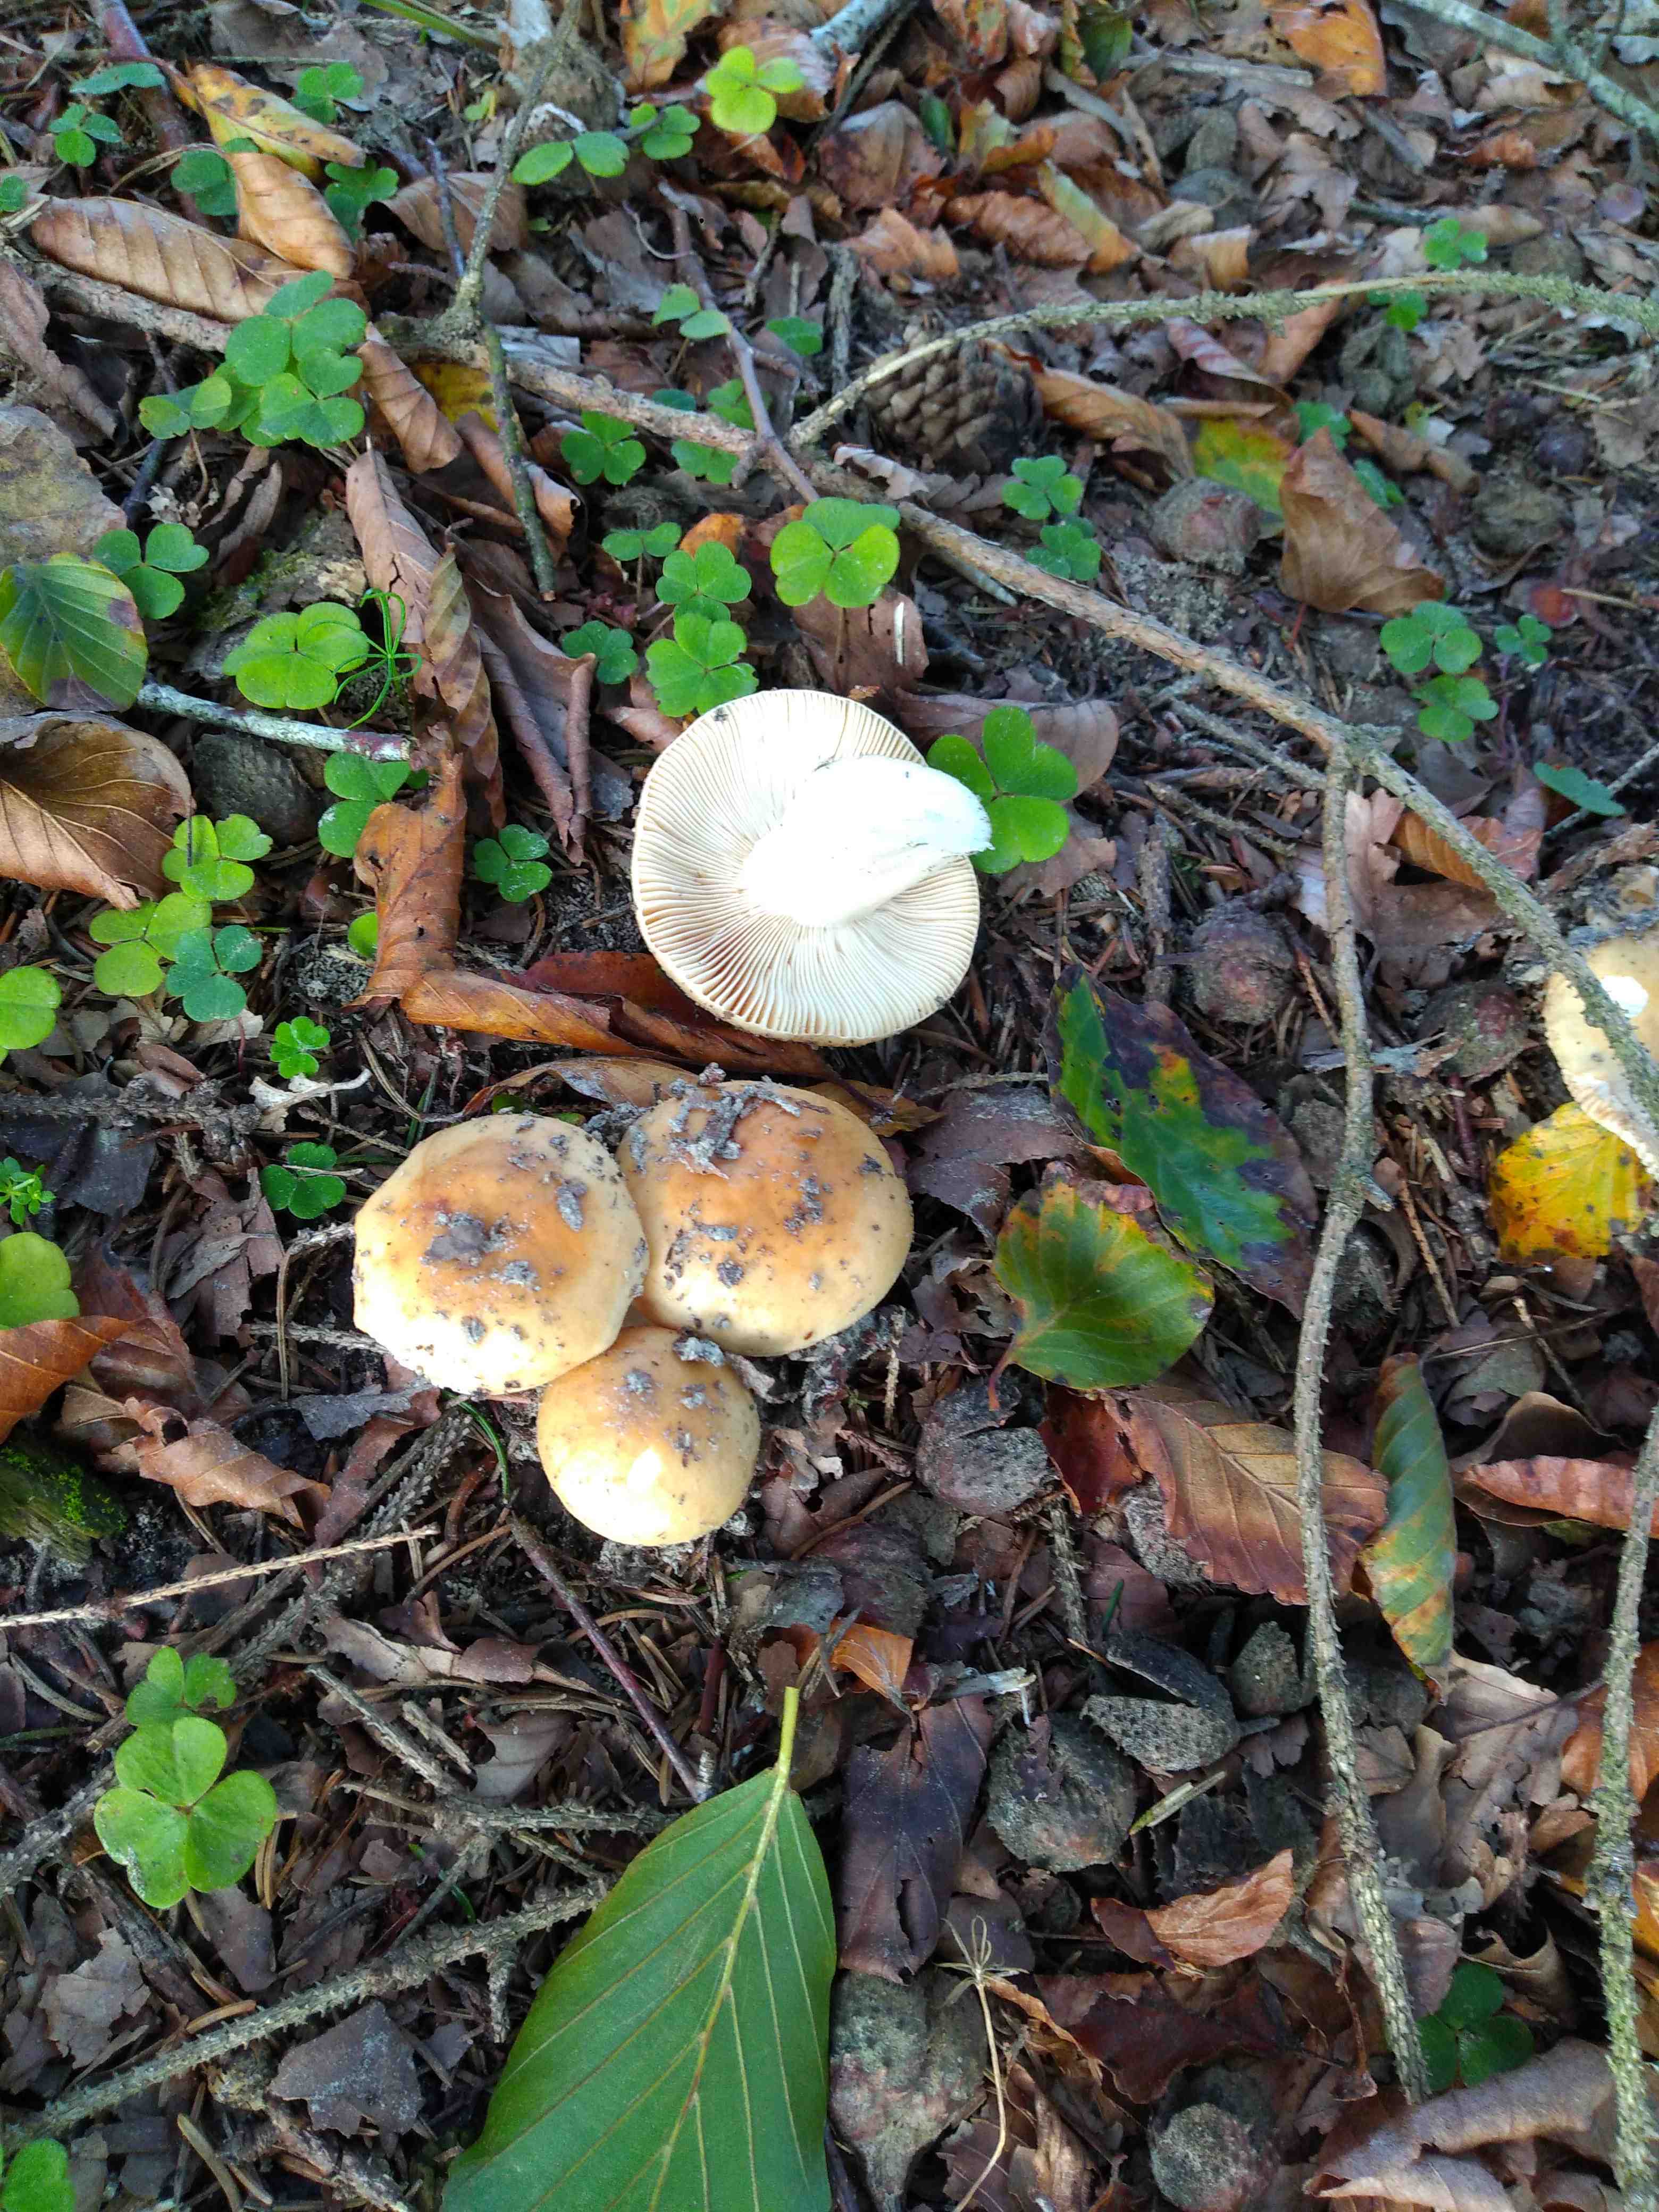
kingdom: Fungi
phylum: Basidiomycota
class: Agaricomycetes
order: Russulales
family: Russulaceae
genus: Russula
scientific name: Russula
